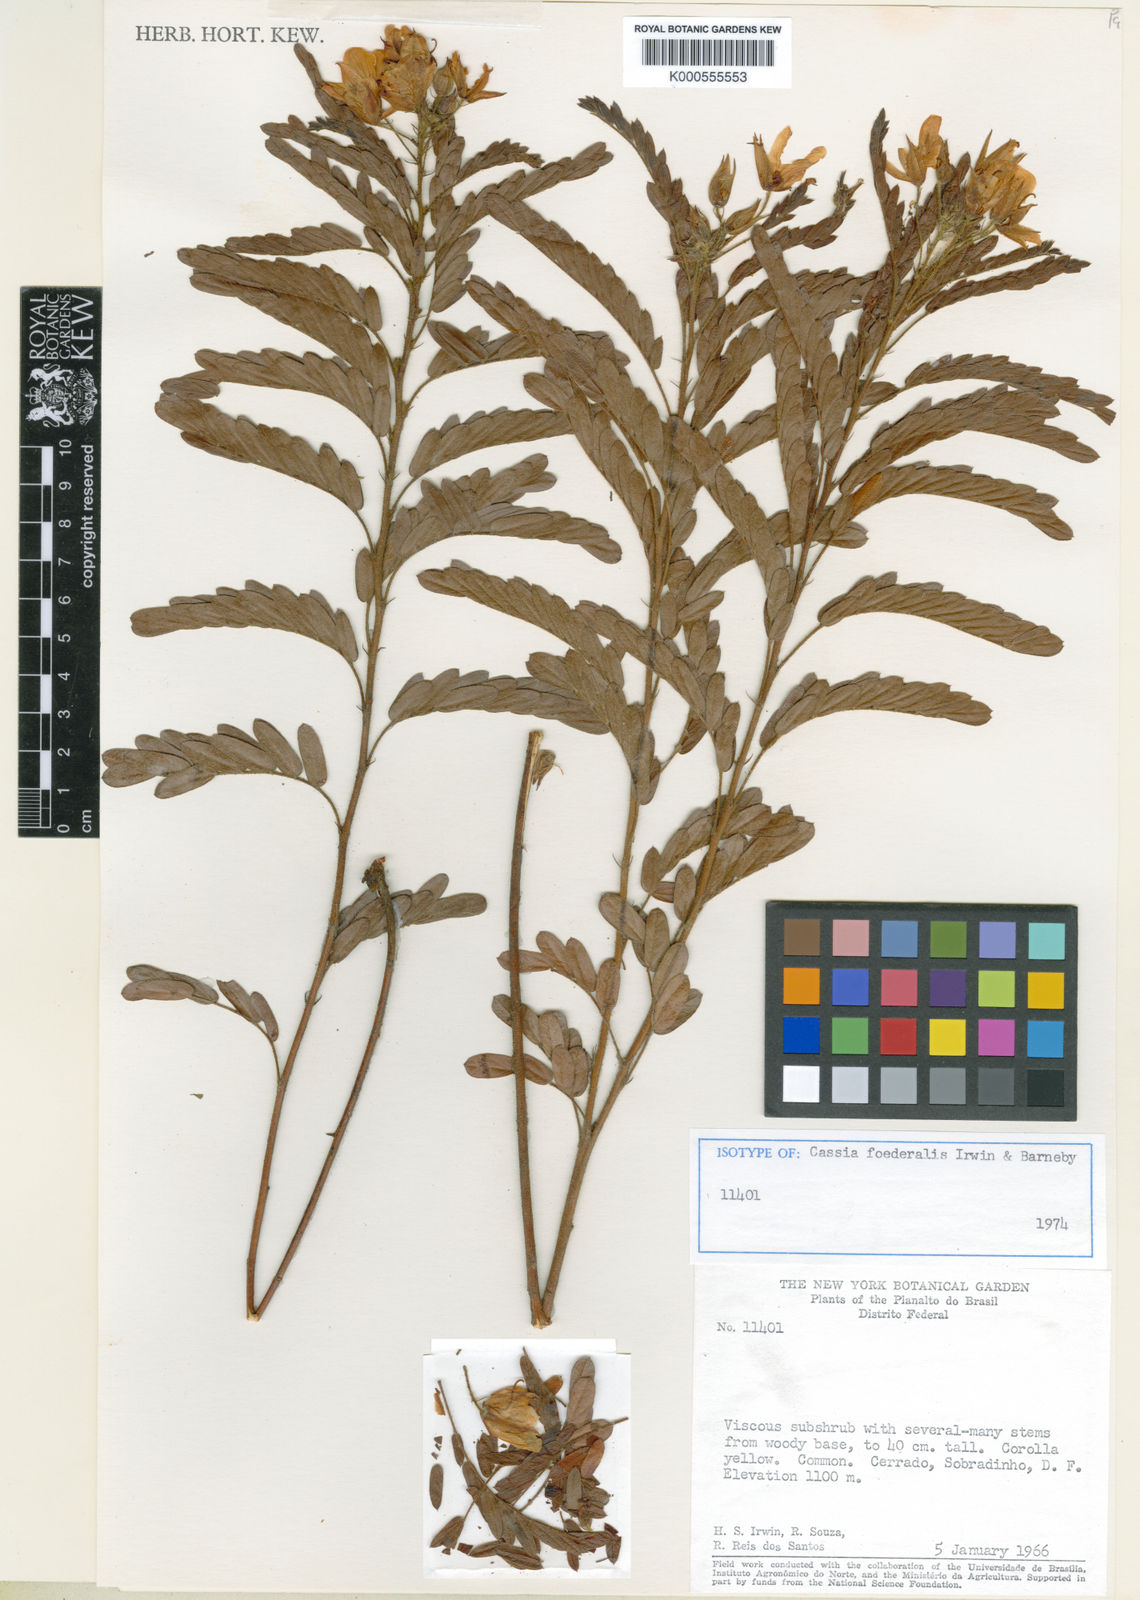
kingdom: Plantae
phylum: Tracheophyta
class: Magnoliopsida
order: Fabales
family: Fabaceae
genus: Chamaecrista
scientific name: Chamaecrista foederalis
